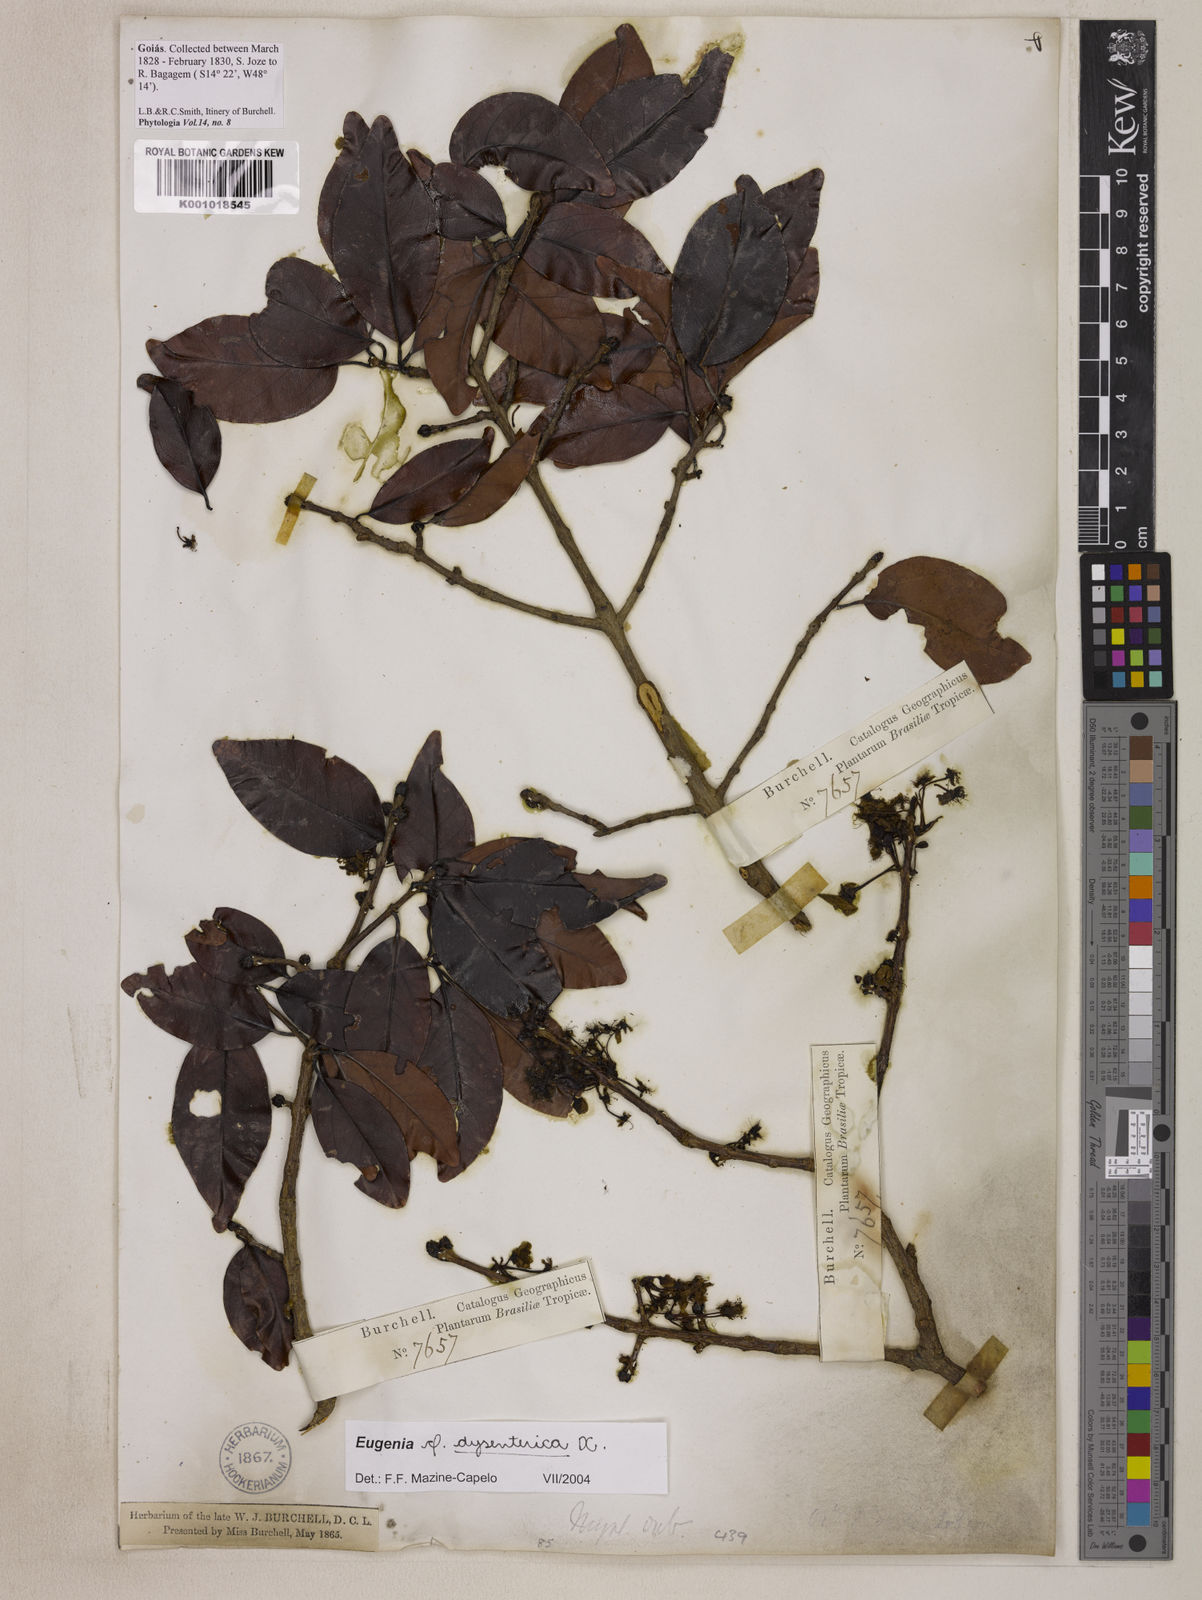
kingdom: Plantae
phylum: Tracheophyta
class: Magnoliopsida
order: Myrtales
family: Myrtaceae
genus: Eugenia
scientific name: Eugenia dysenterica
